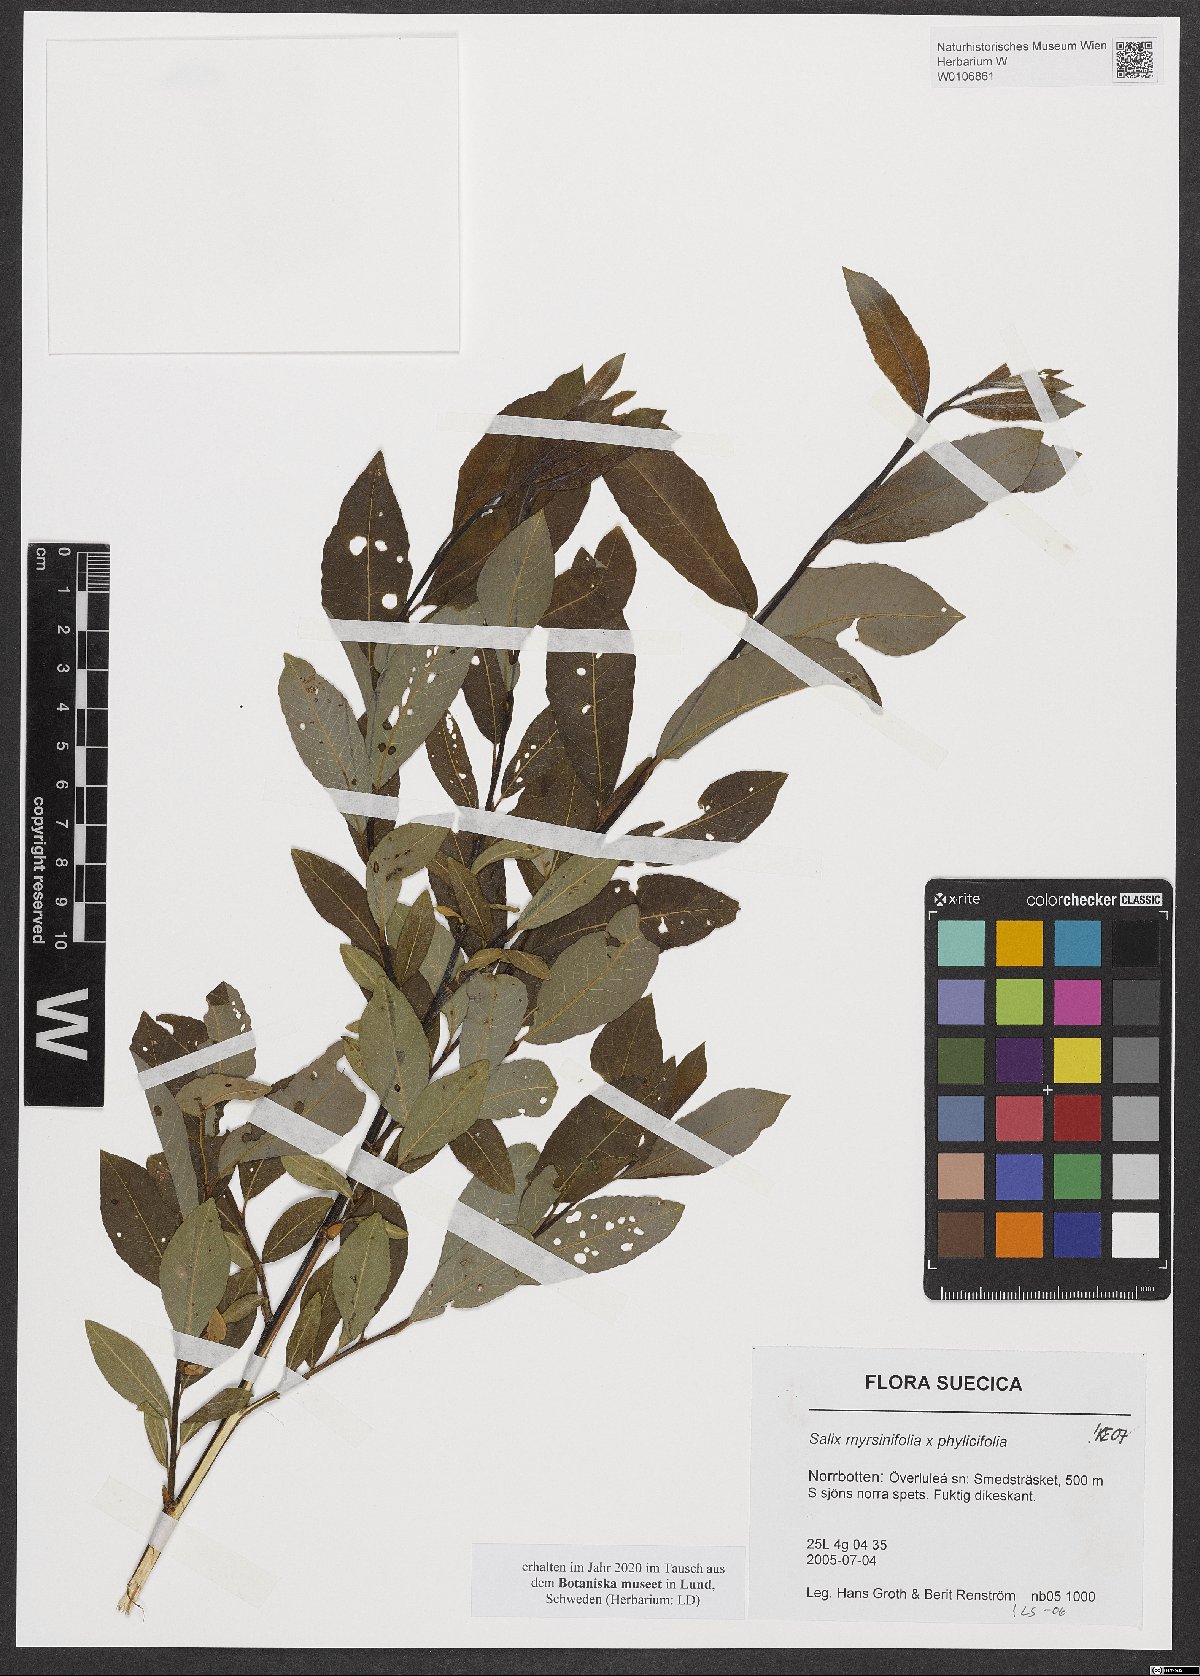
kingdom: Plantae
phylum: Tracheophyta
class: Magnoliopsida
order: Malpighiales
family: Salicaceae
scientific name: Salicaceae
